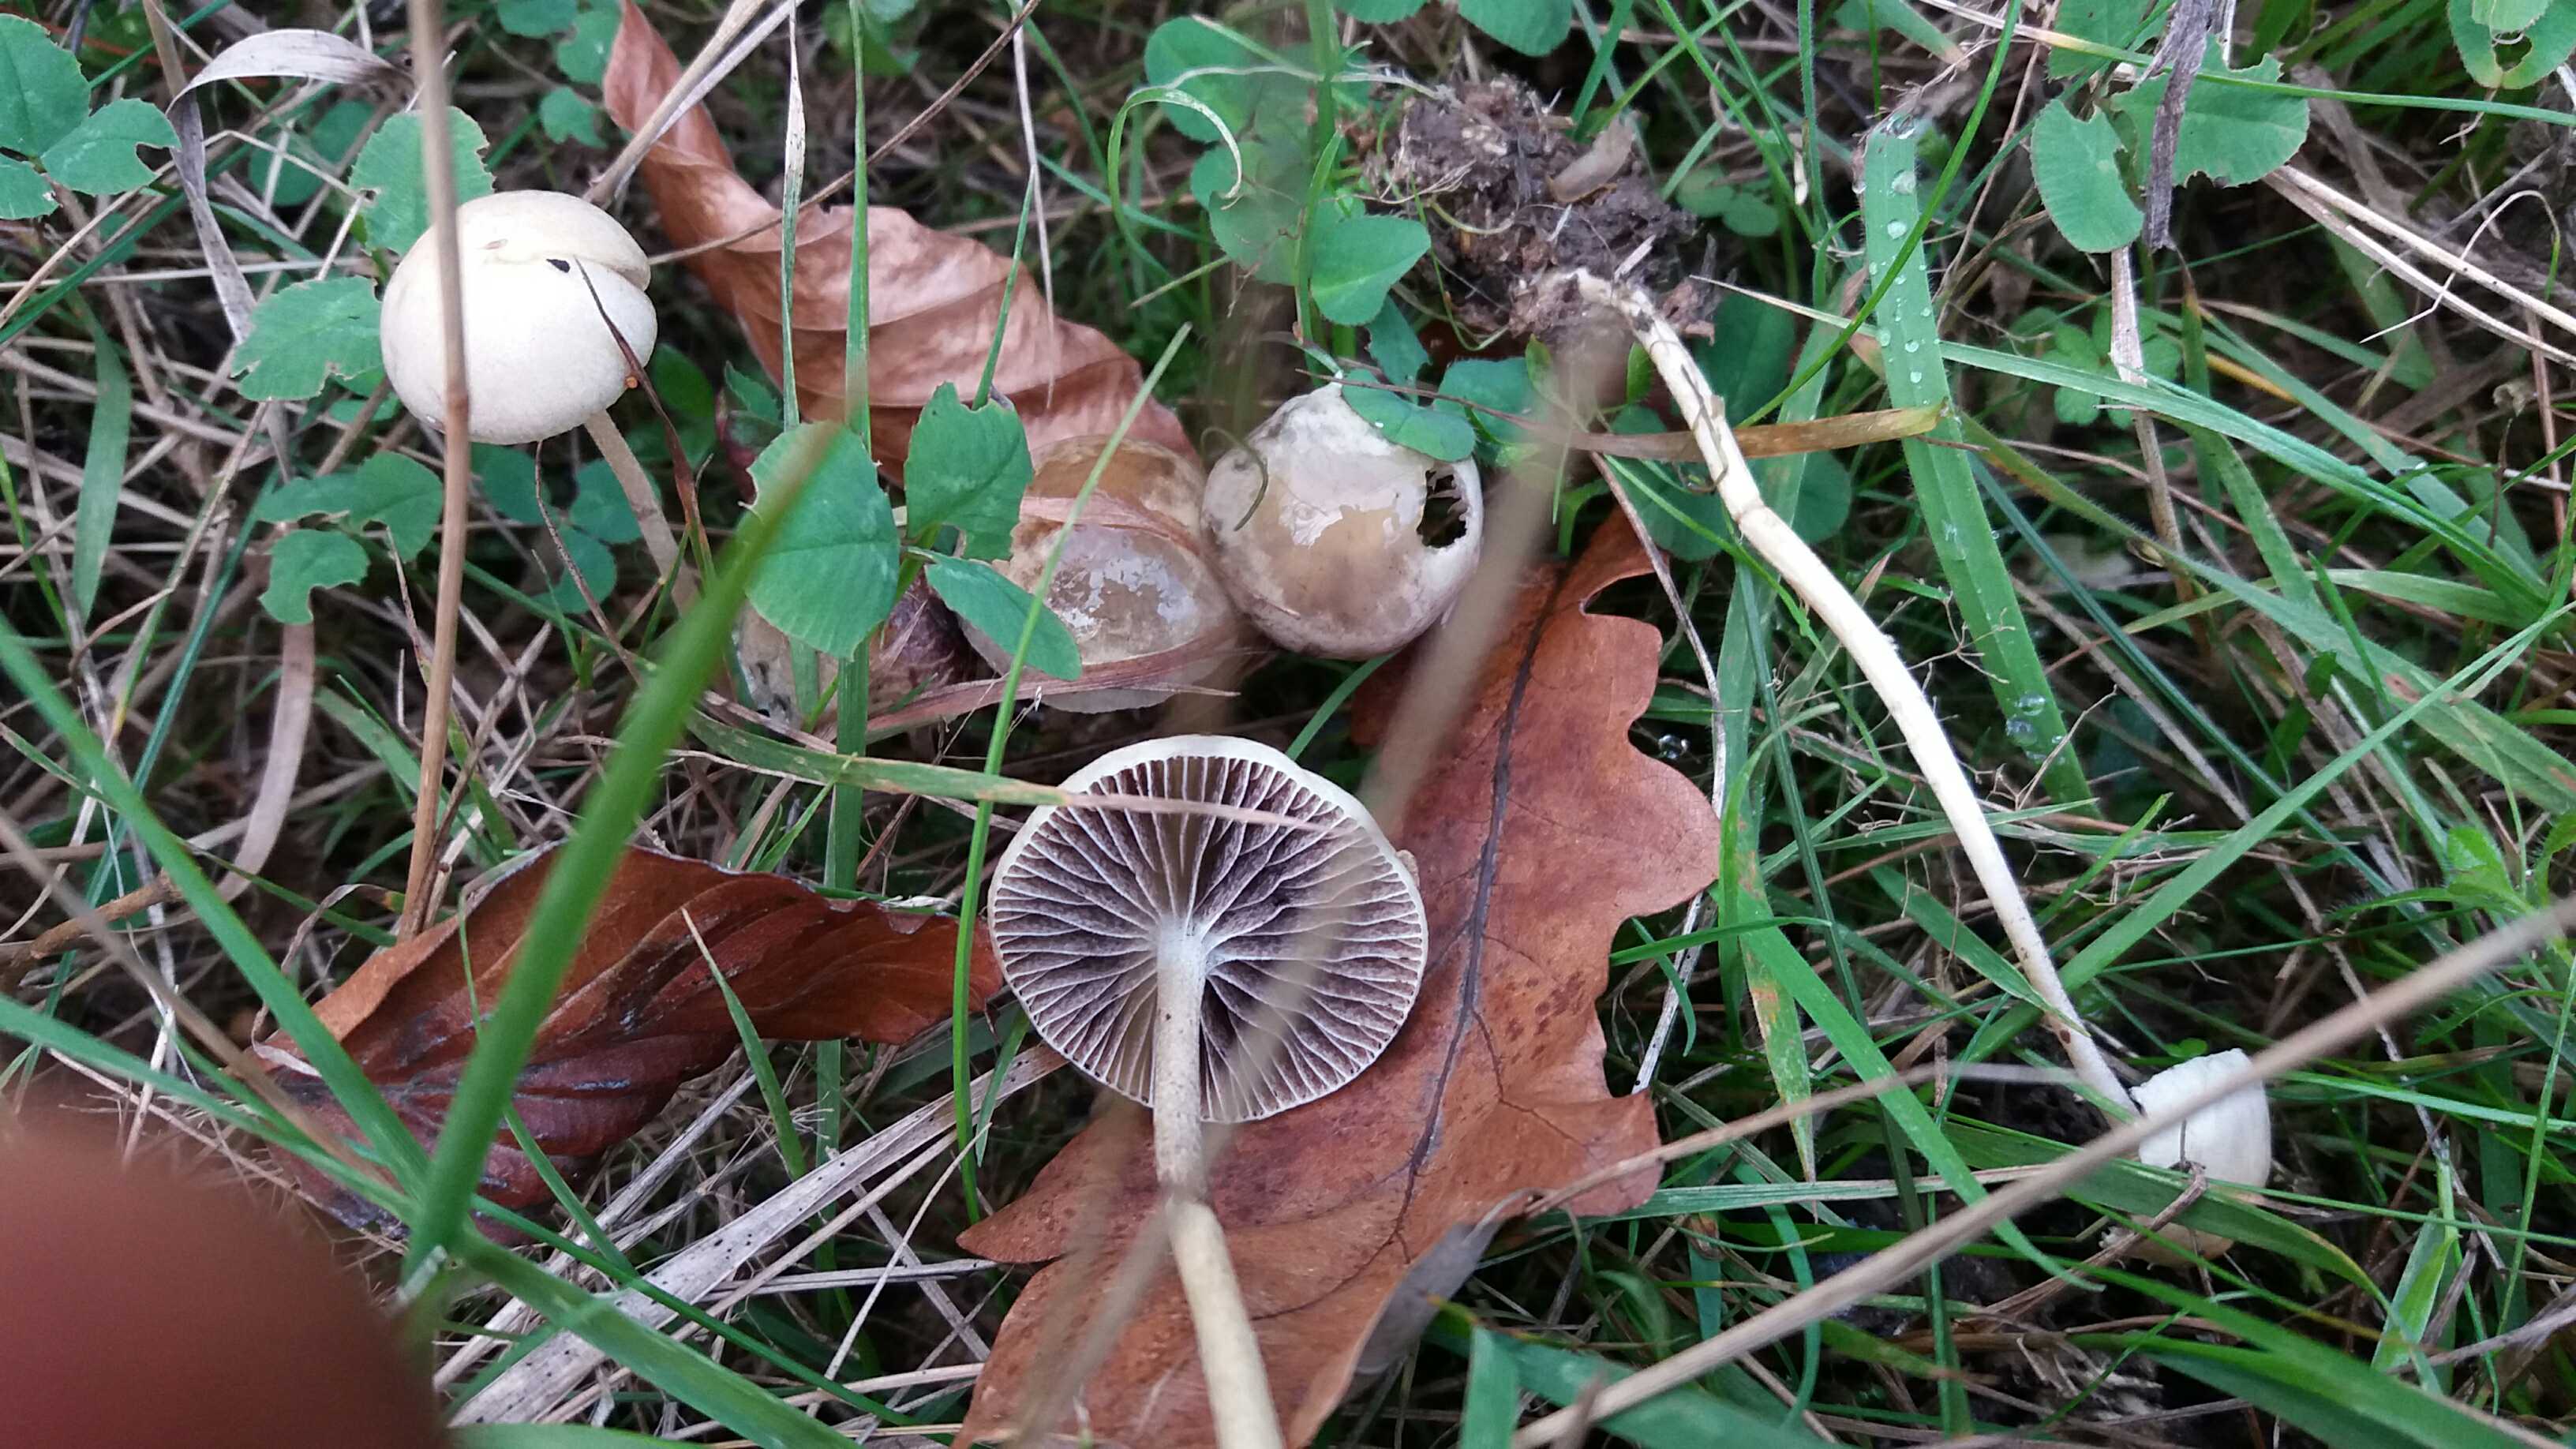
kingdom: Fungi
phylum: Basidiomycota
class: Agaricomycetes
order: Agaricales
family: Strophariaceae
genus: Protostropharia
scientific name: Protostropharia semiglobata
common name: halvkugleformet bredblad
